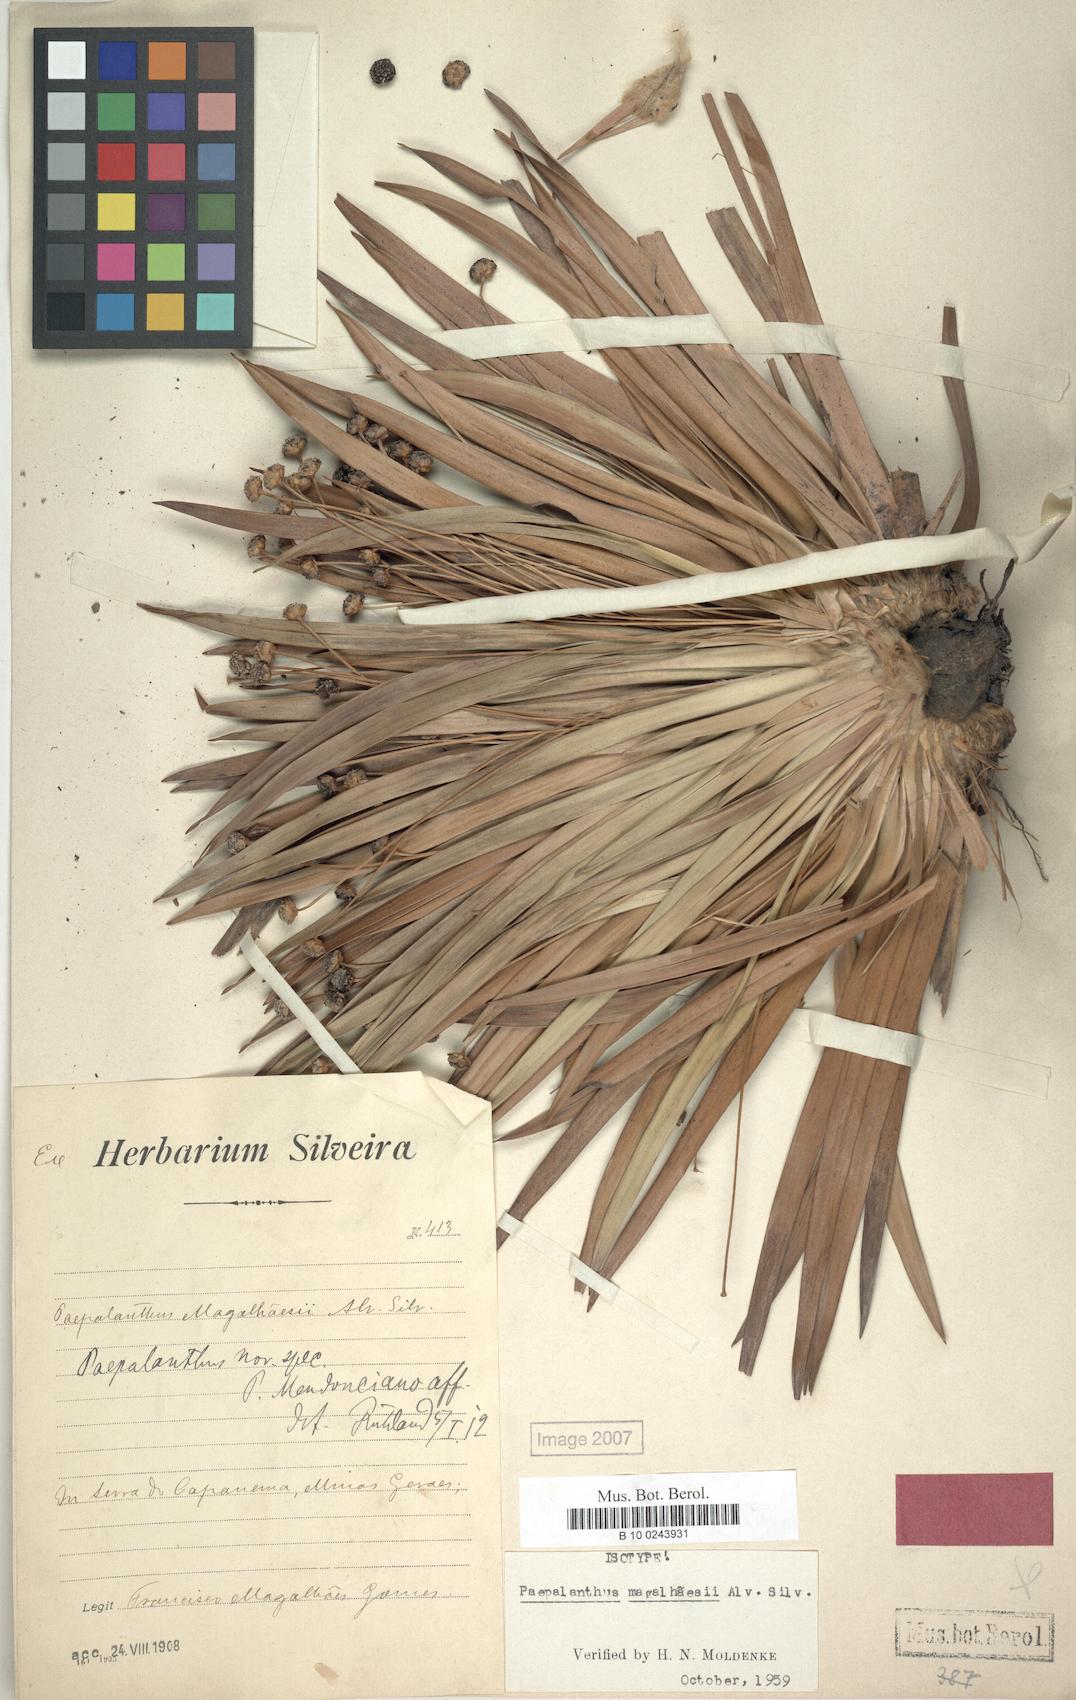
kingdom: Plantae
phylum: Tracheophyta
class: Liliopsida
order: Poales
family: Eriocaulaceae
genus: Paepalanthus
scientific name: Paepalanthus
